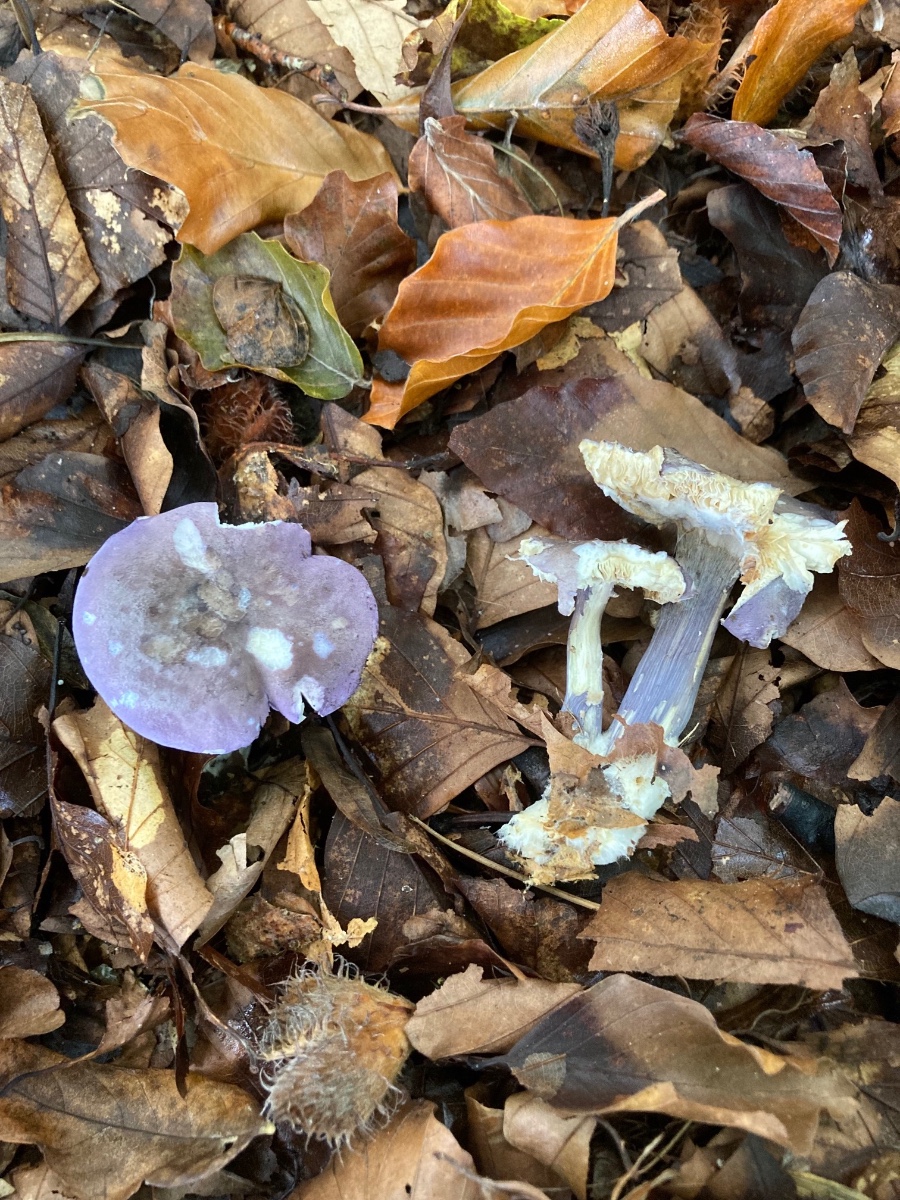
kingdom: Fungi
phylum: Basidiomycota
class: Agaricomycetes
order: Agaricales
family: Lyophyllaceae
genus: Calocybe
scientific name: Calocybe ionides
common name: violblå fagerhat
